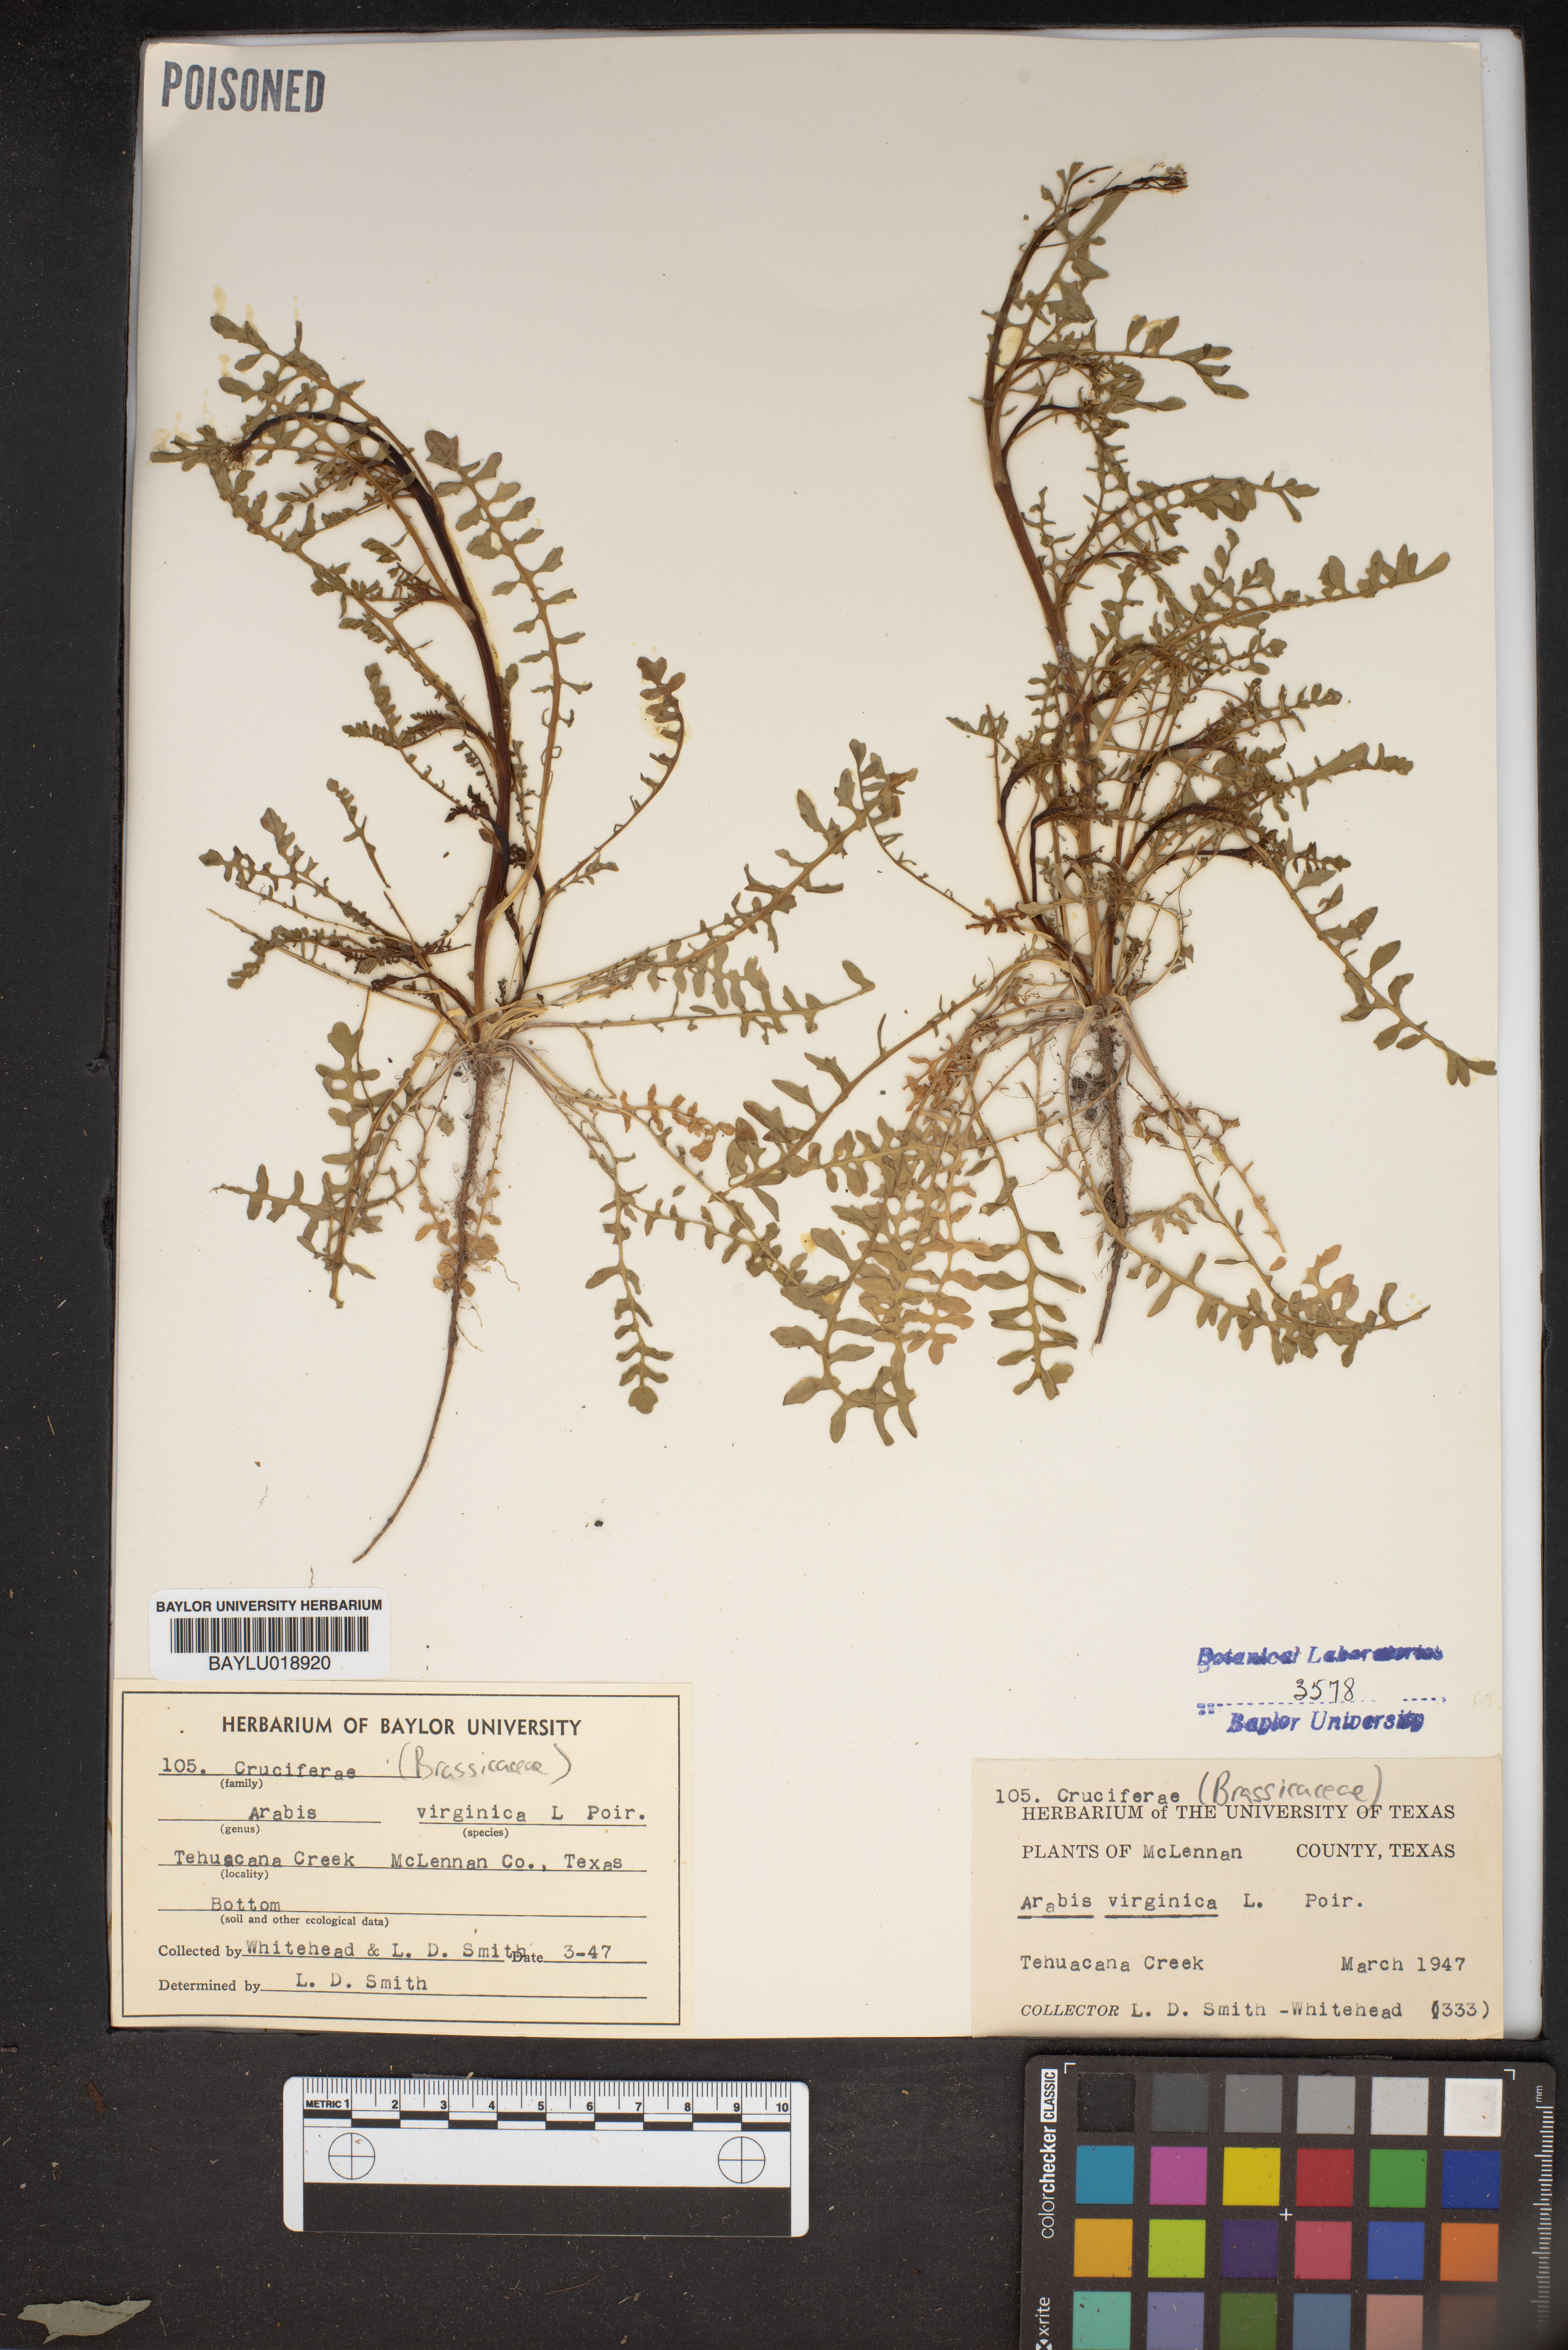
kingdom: Plantae
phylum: Tracheophyta
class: Magnoliopsida
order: Brassicales
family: Brassicaceae
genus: Planodes
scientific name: Planodes virginicum
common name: Virginia cress
